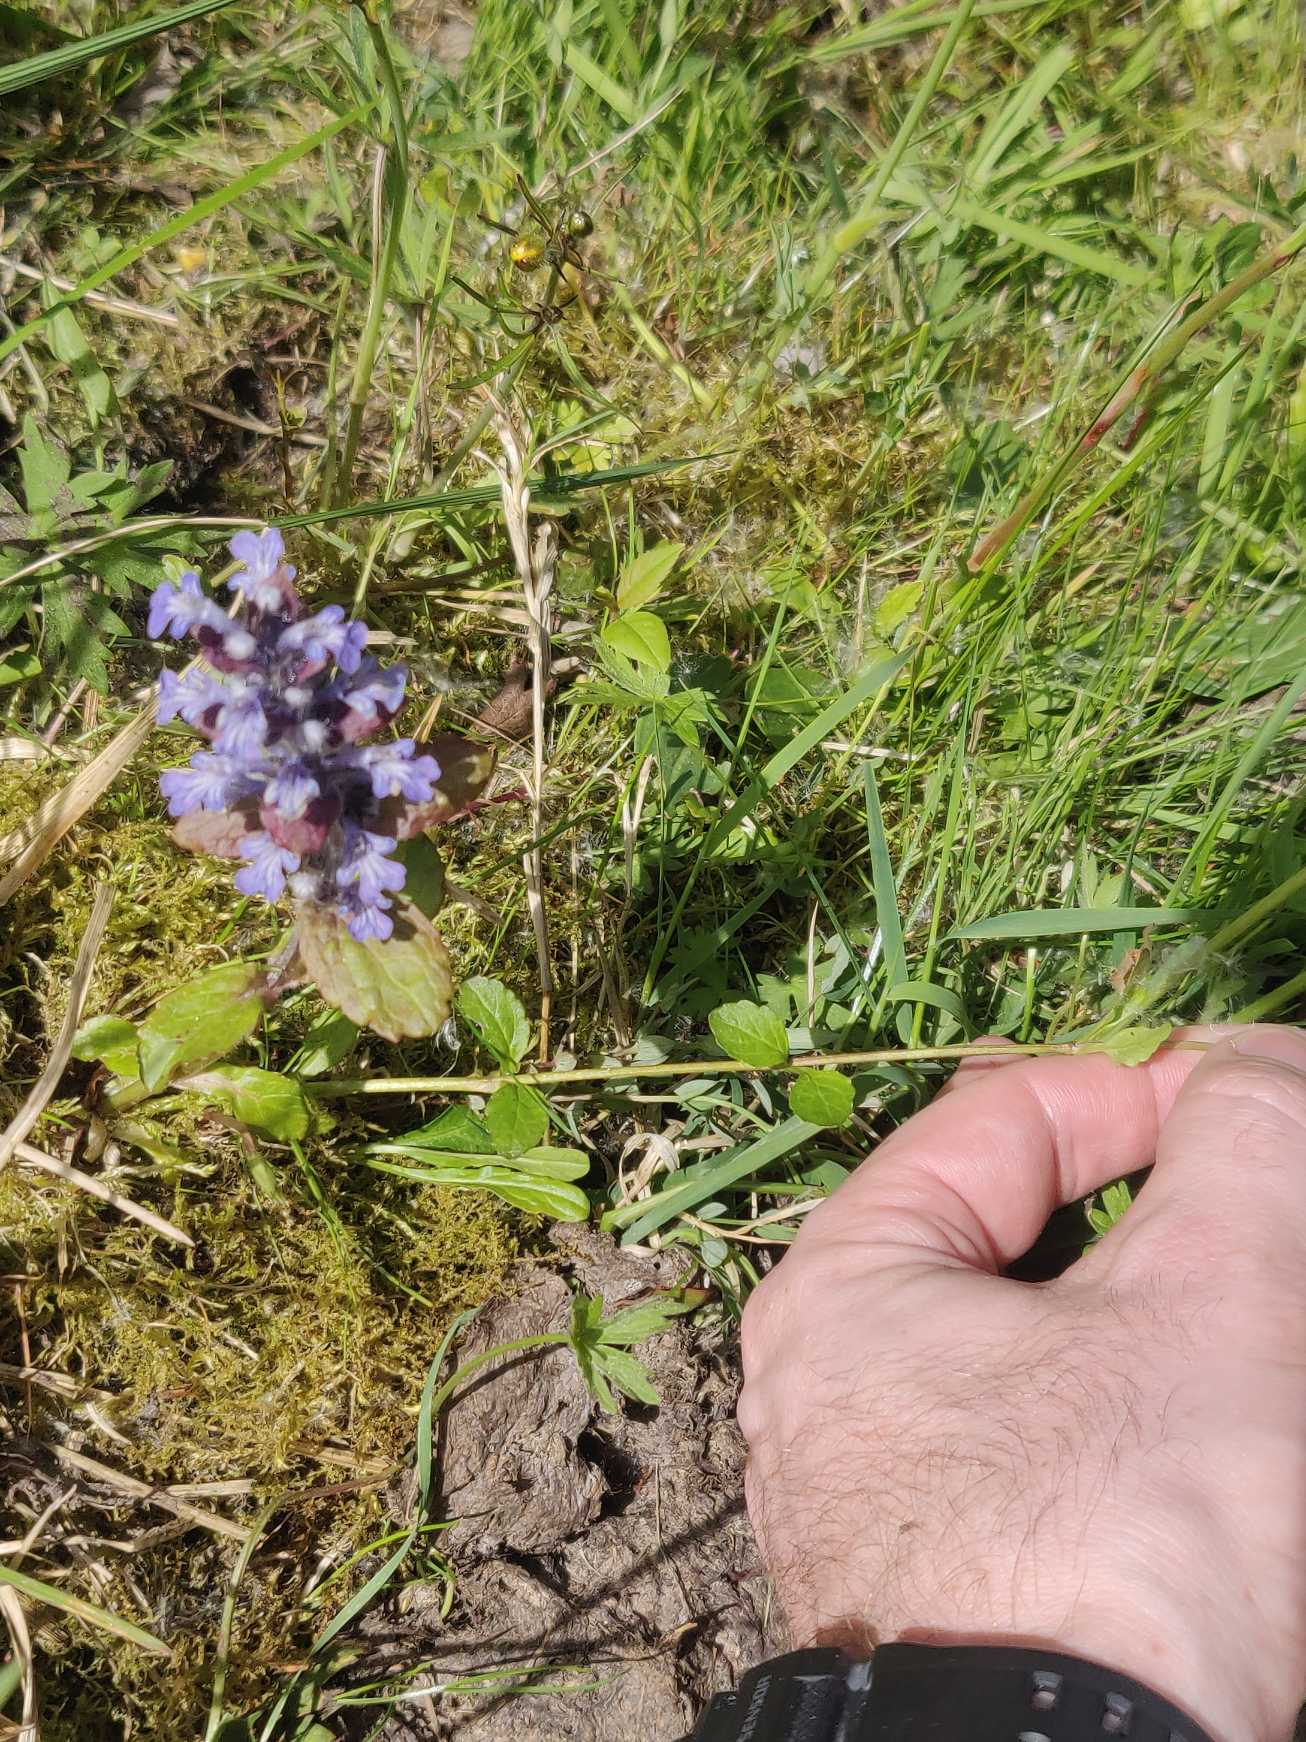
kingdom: Plantae
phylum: Tracheophyta
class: Magnoliopsida
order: Lamiales
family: Lamiaceae
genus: Ajuga
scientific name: Ajuga reptans
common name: Krybende læbeløs
